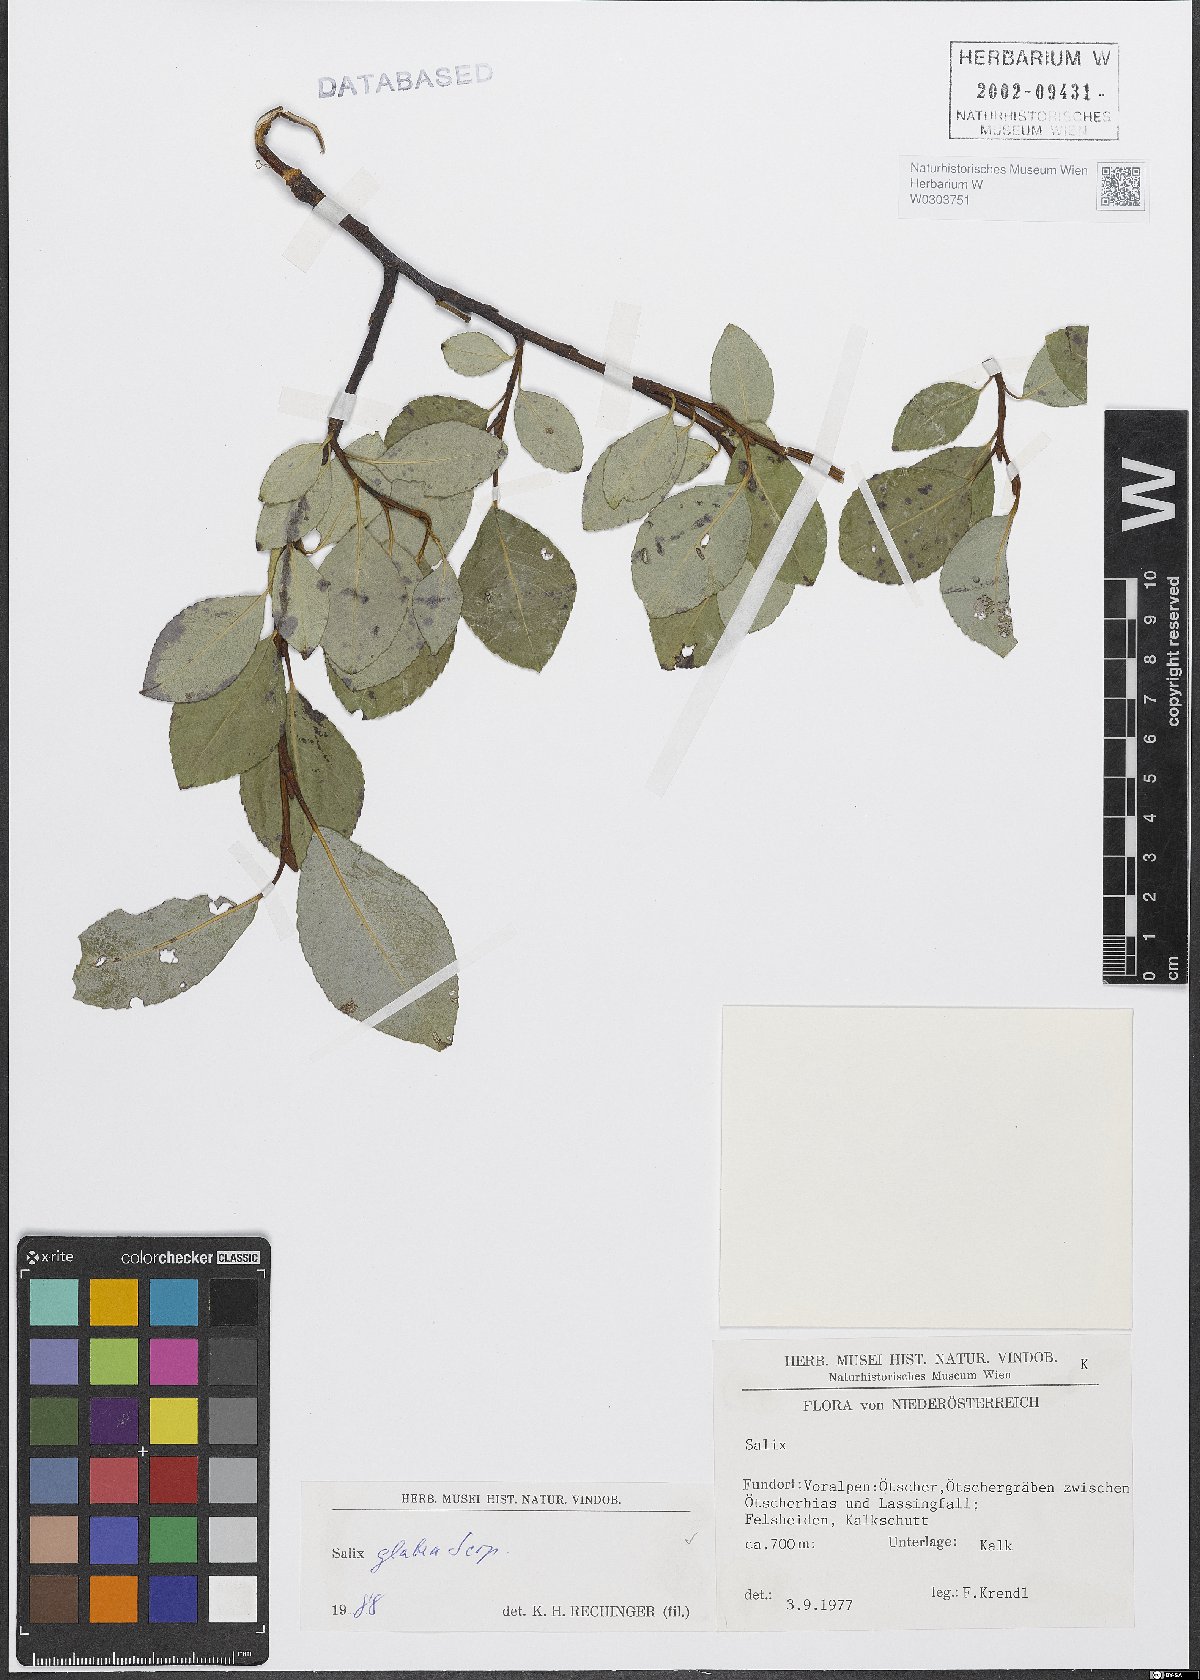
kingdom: Plantae
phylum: Tracheophyta
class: Magnoliopsida
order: Malpighiales
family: Salicaceae
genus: Salix
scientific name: Salix glabra
